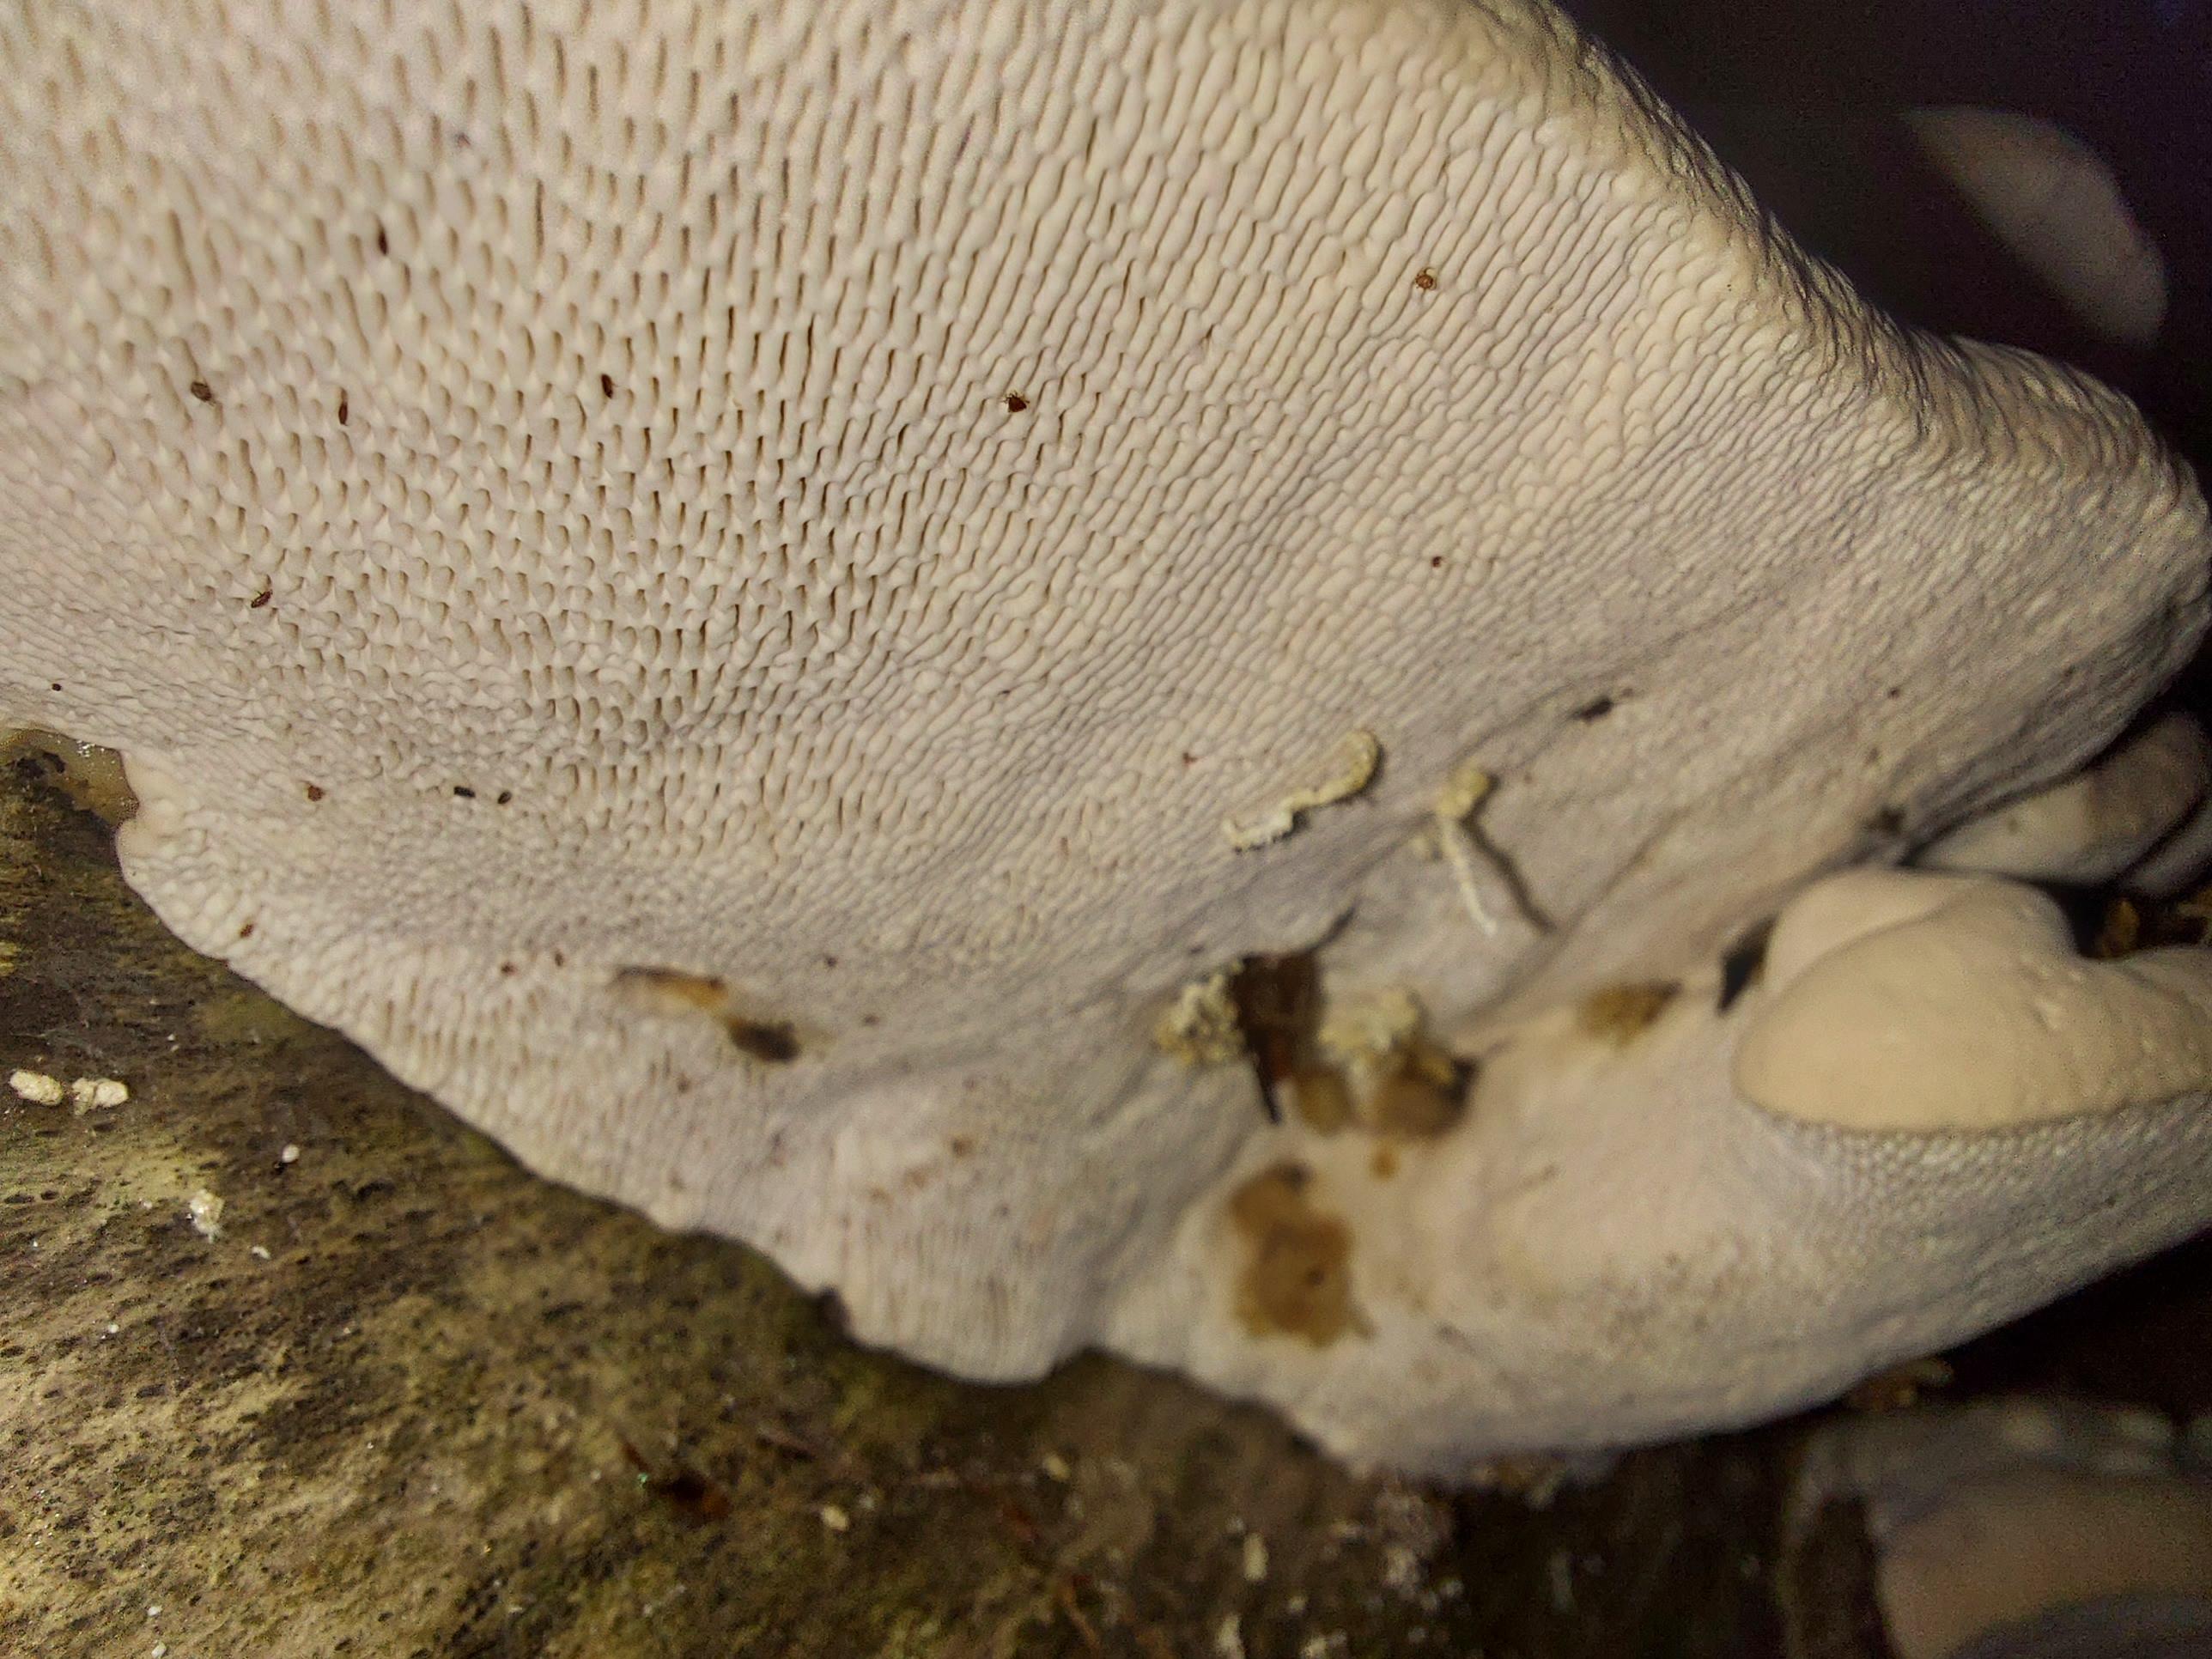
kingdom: Fungi
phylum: Basidiomycota
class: Agaricomycetes
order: Polyporales
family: Polyporaceae
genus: Trametes
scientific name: Trametes gibbosa
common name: puklet læderporesvamp
